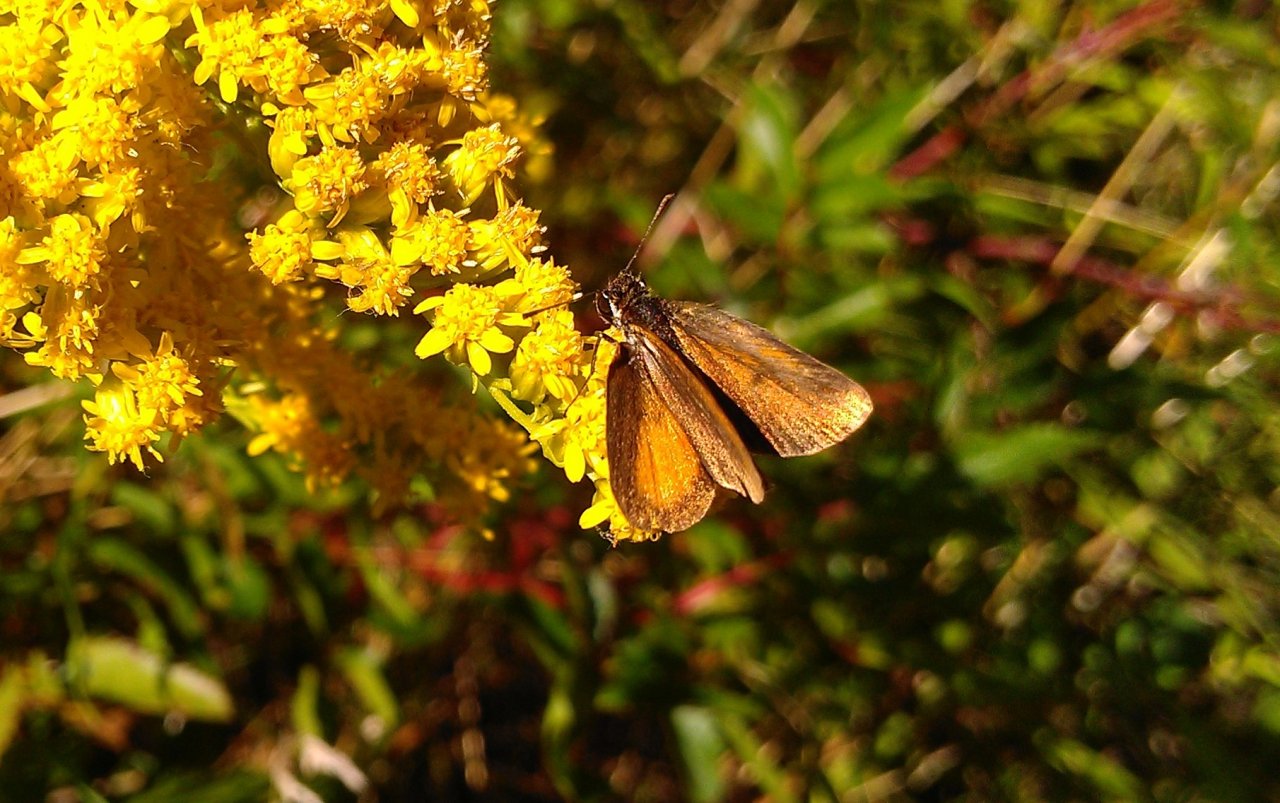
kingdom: Animalia
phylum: Arthropoda
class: Insecta
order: Lepidoptera
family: Hesperiidae
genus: Ancyloxypha
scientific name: Ancyloxypha numitor
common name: Least Skipper
